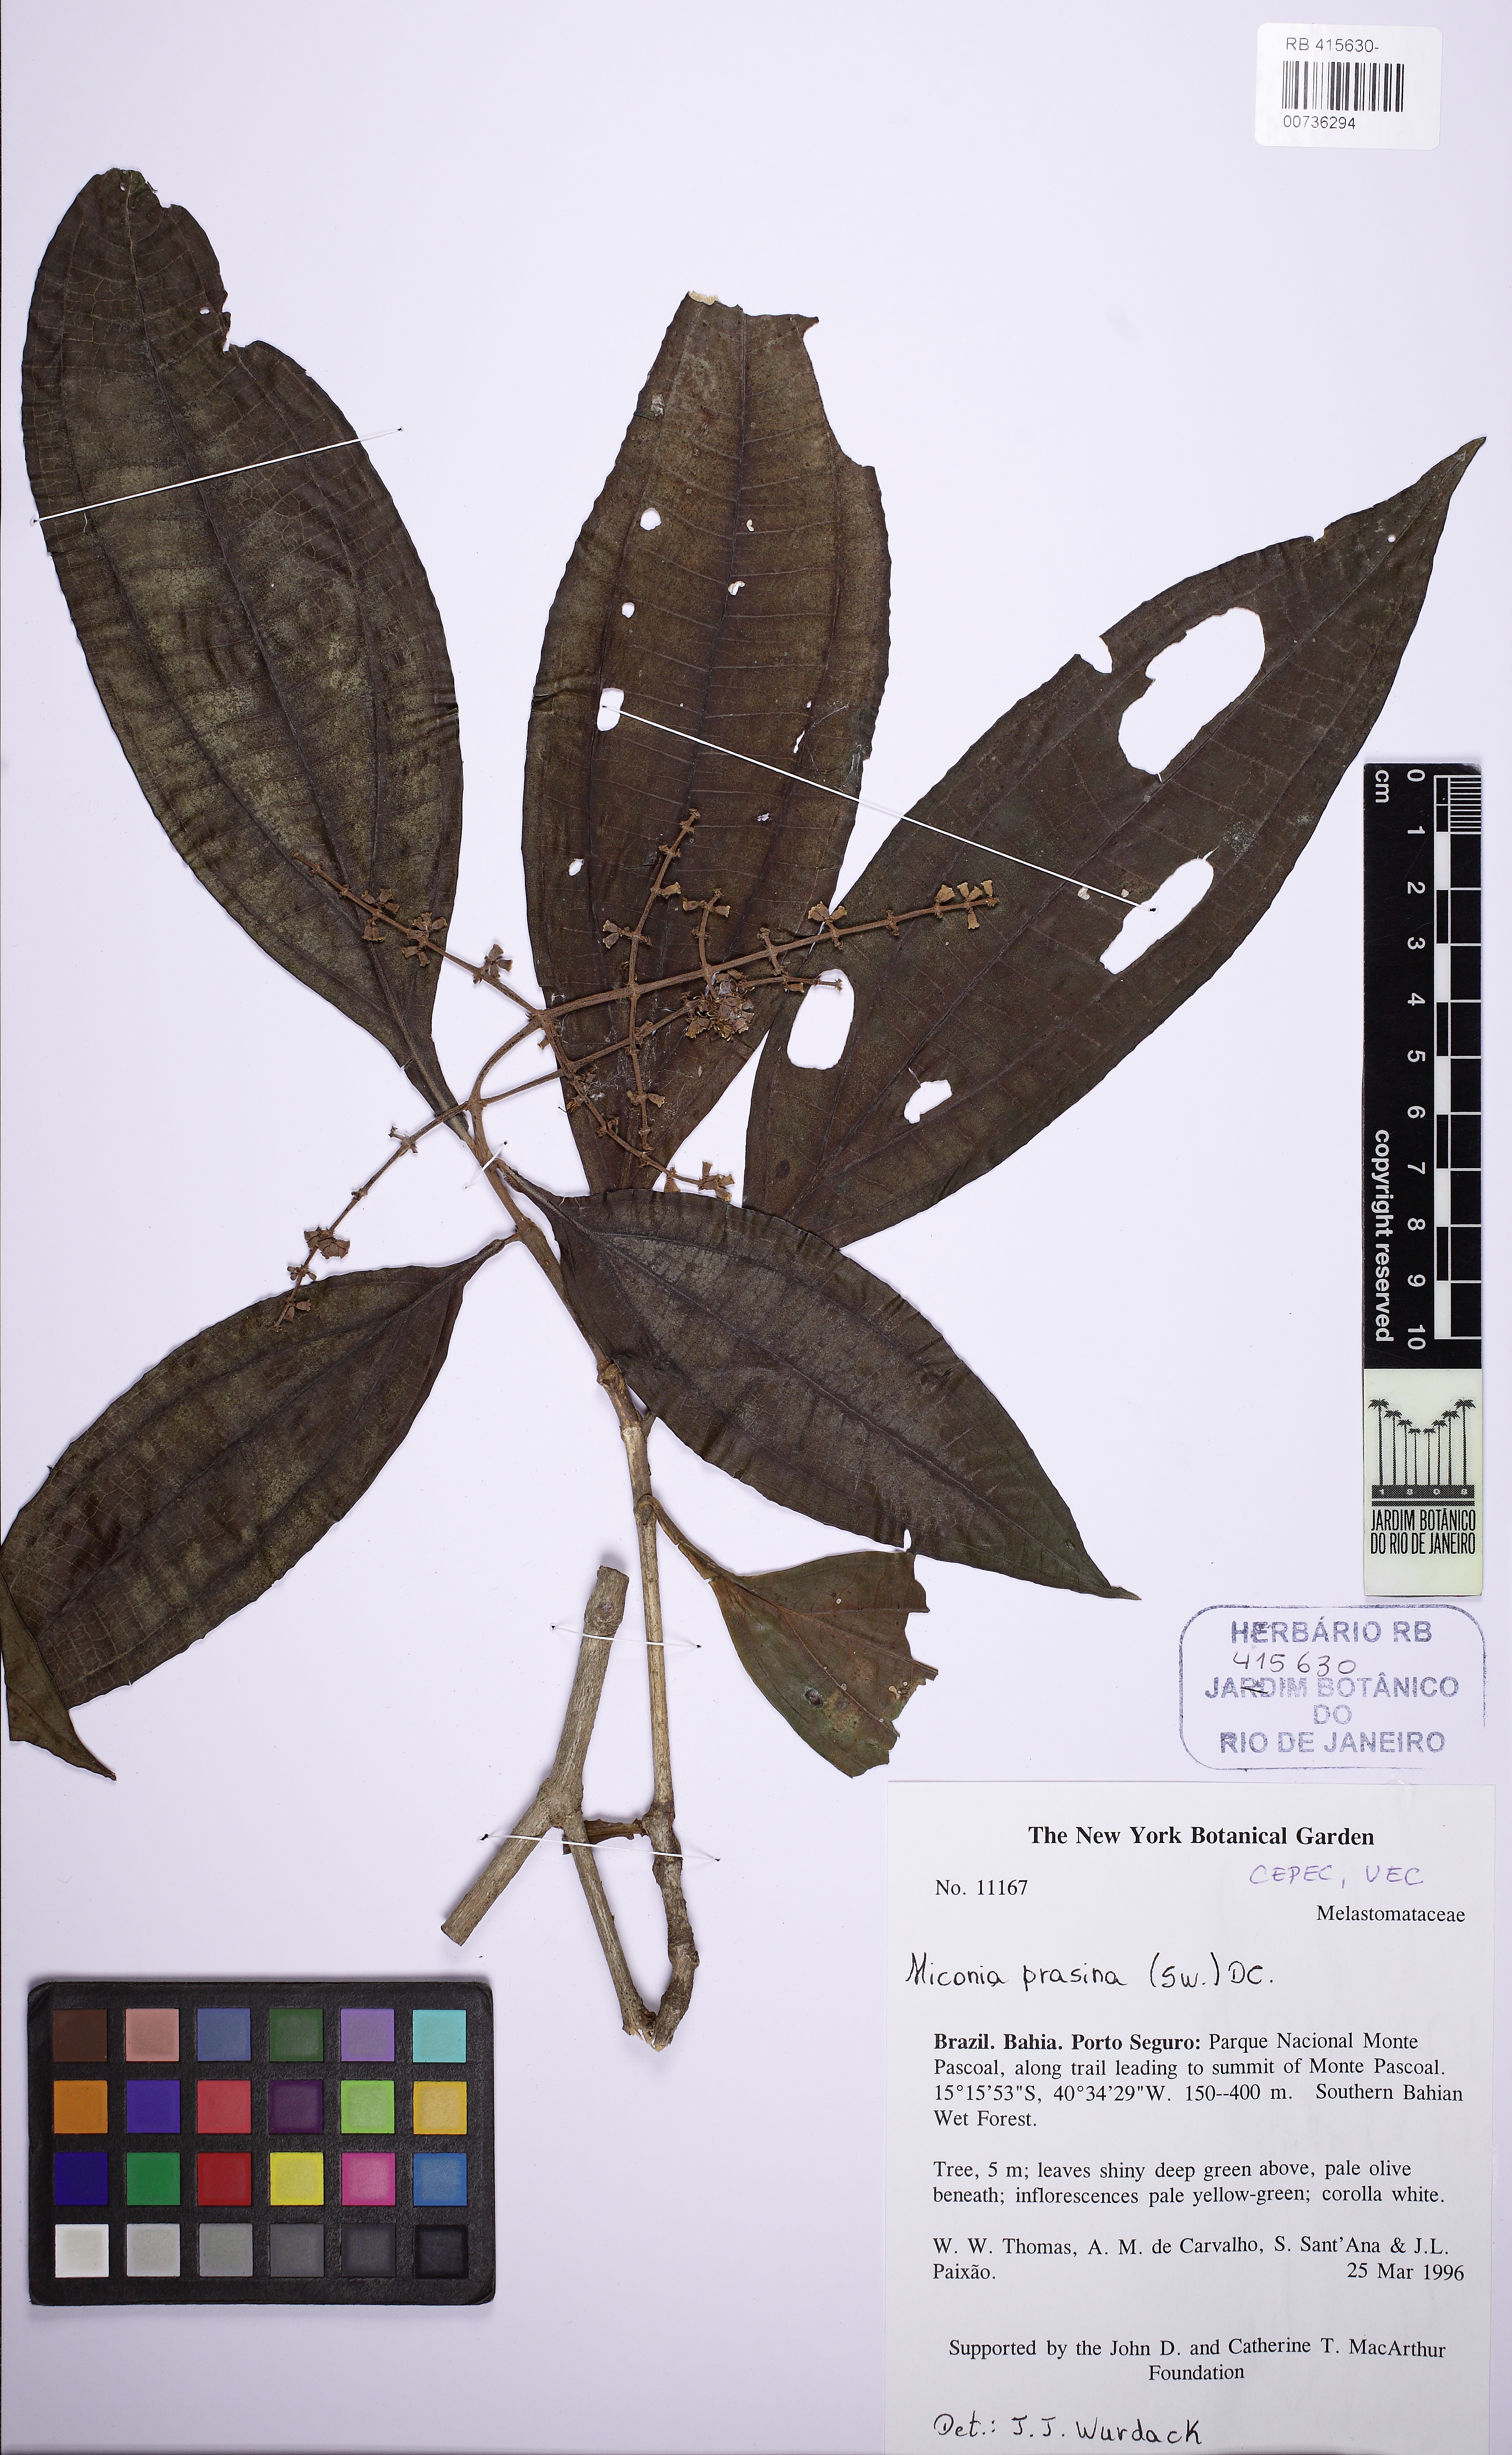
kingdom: Plantae
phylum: Tracheophyta
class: Magnoliopsida
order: Myrtales
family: Melastomataceae
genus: Miconia
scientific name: Miconia prasina
